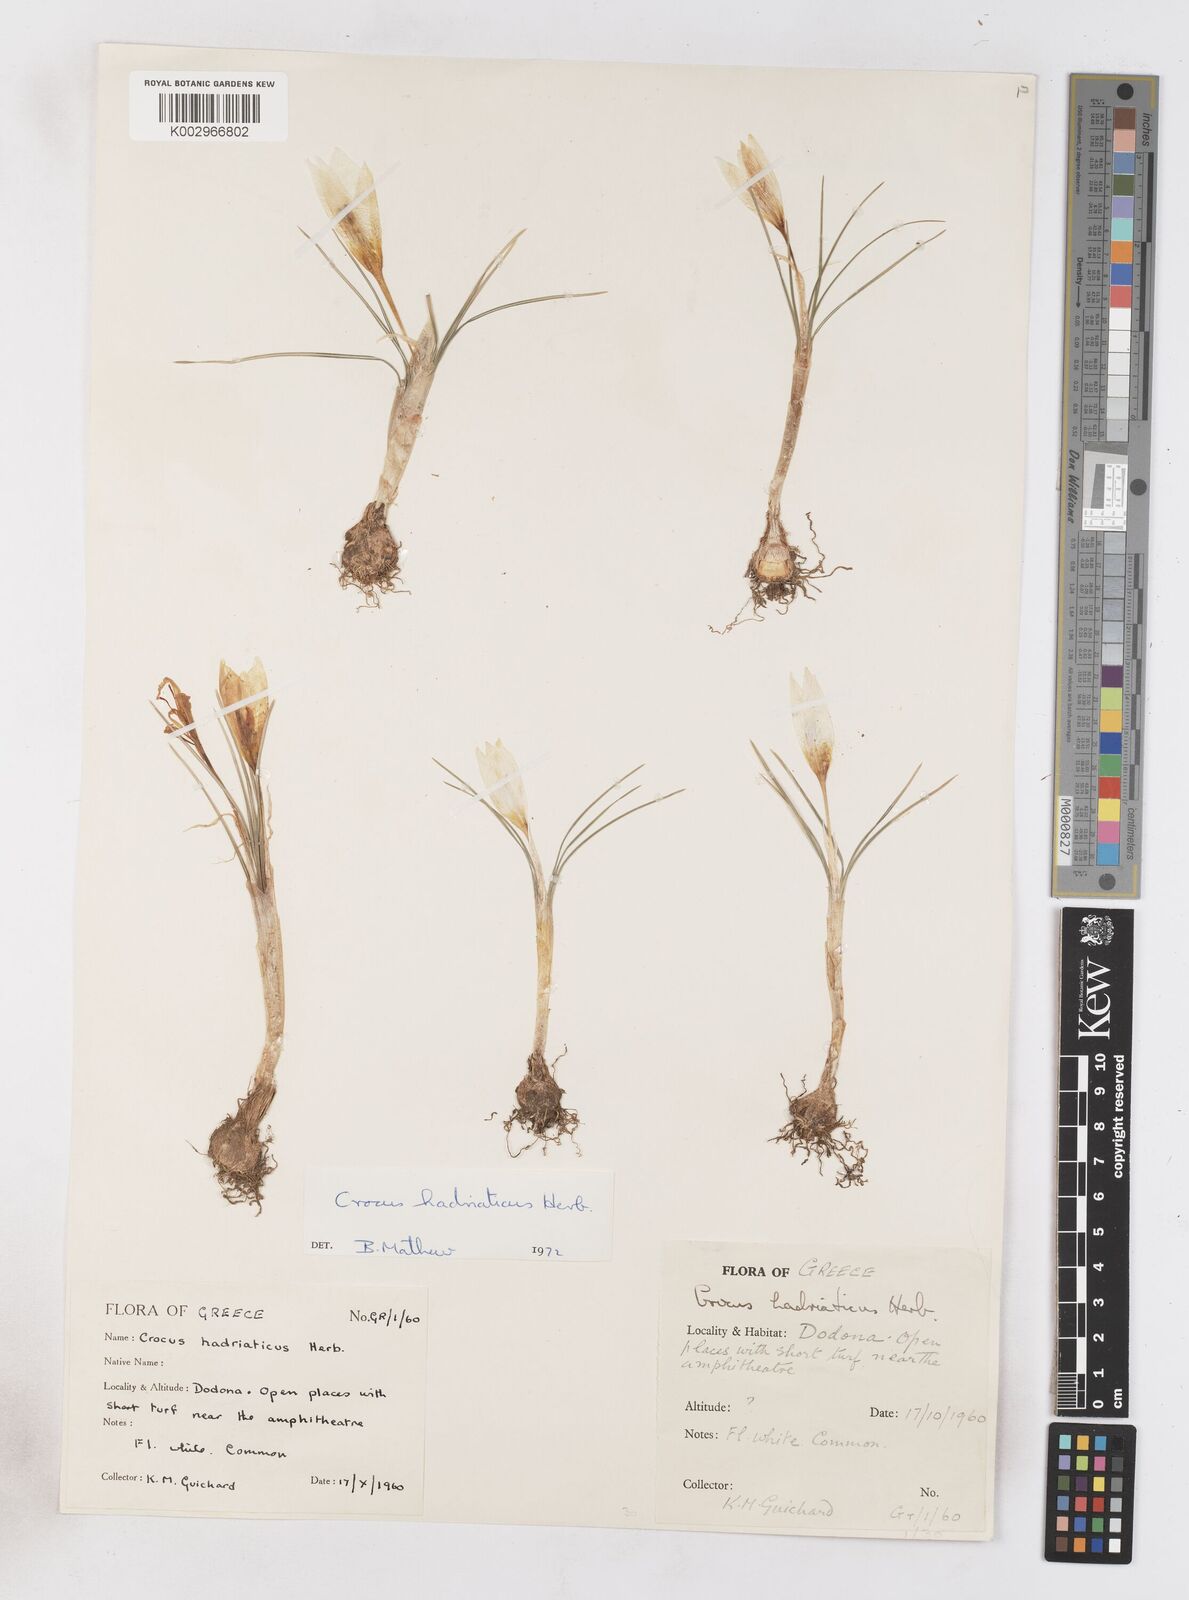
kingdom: Plantae
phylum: Tracheophyta
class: Liliopsida
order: Asparagales
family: Iridaceae
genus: Crocus
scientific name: Crocus hadriaticus
